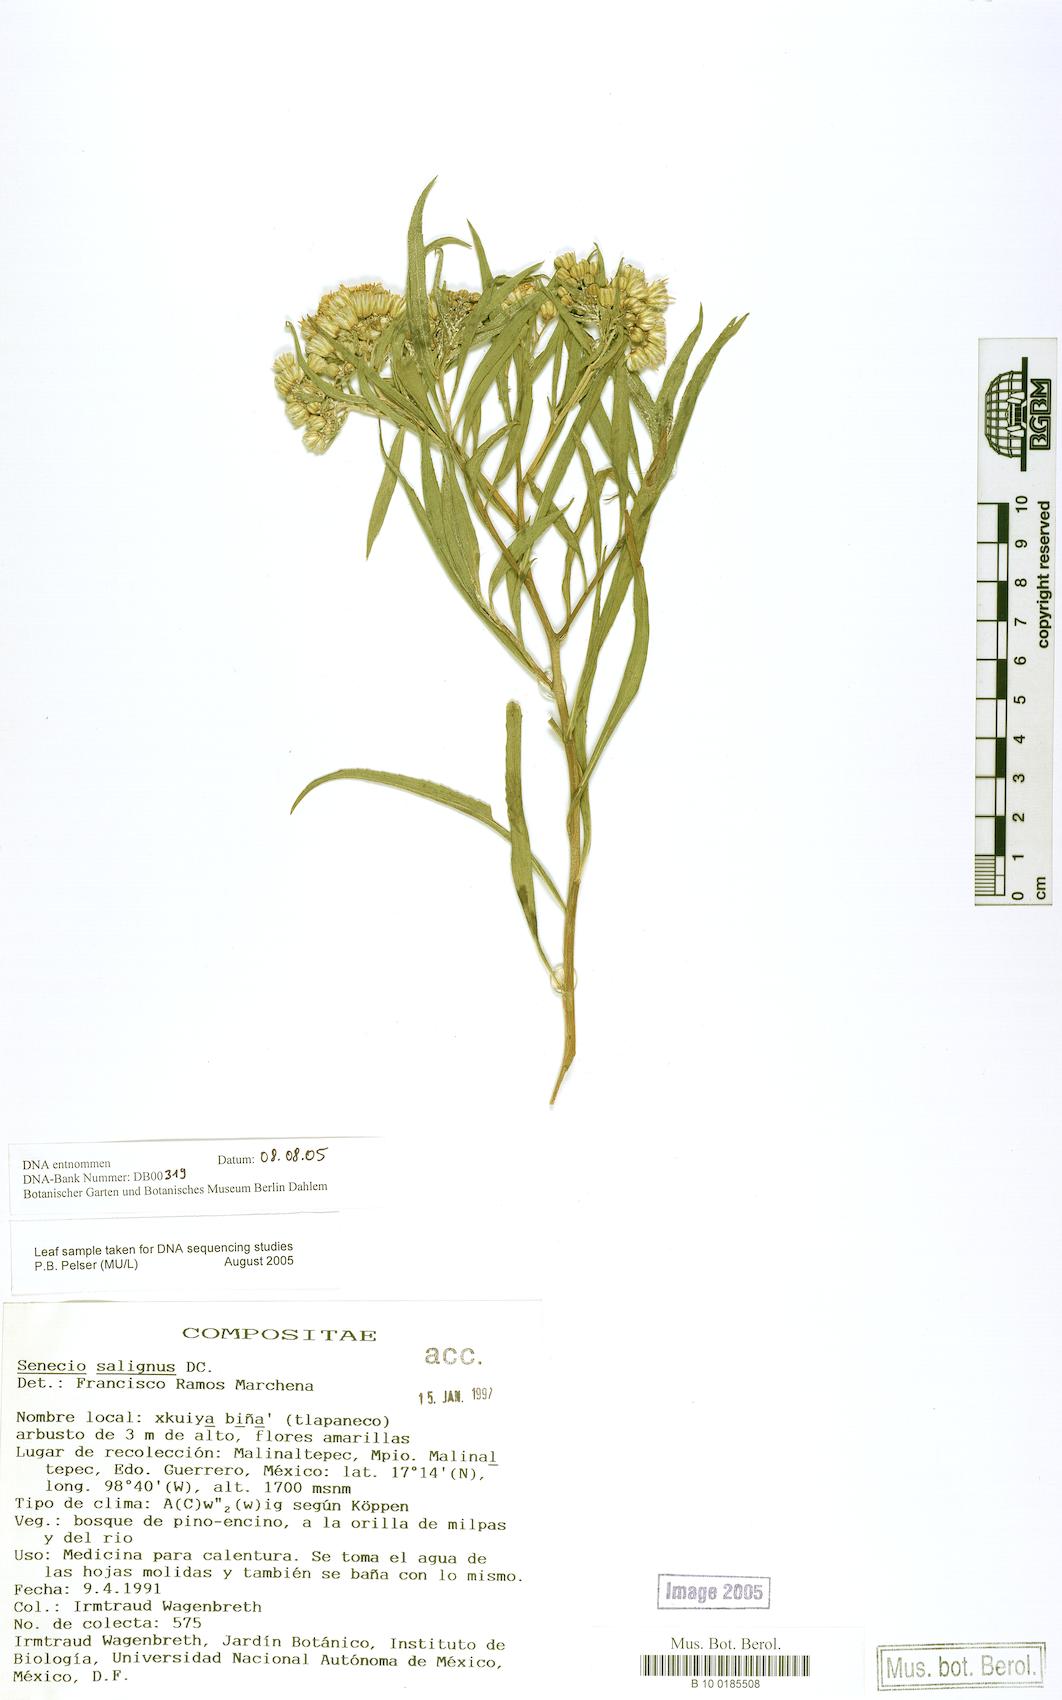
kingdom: Plantae
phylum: Tracheophyta
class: Magnoliopsida
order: Asterales
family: Asteraceae
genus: Barkleyanthus
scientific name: Barkleyanthus salicifolius
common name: Willow ragwort
